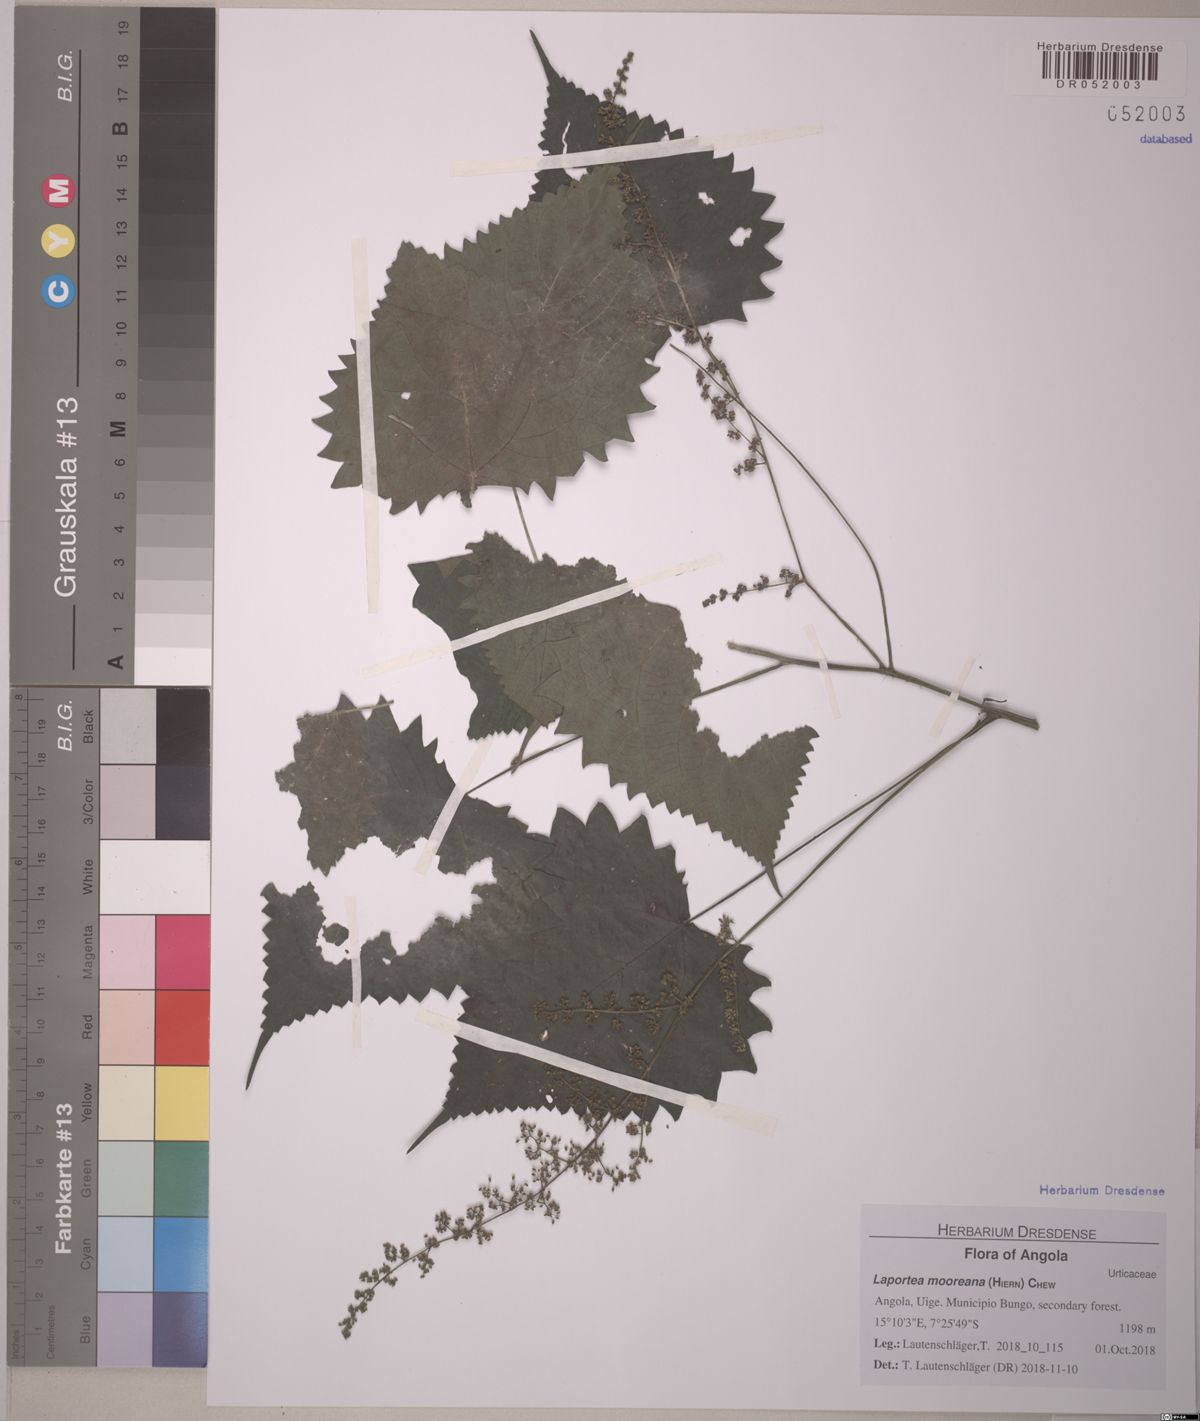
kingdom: Plantae
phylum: Tracheophyta
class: Magnoliopsida
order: Rosales
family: Urticaceae
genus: Laportea
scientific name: Laportea mooreana
